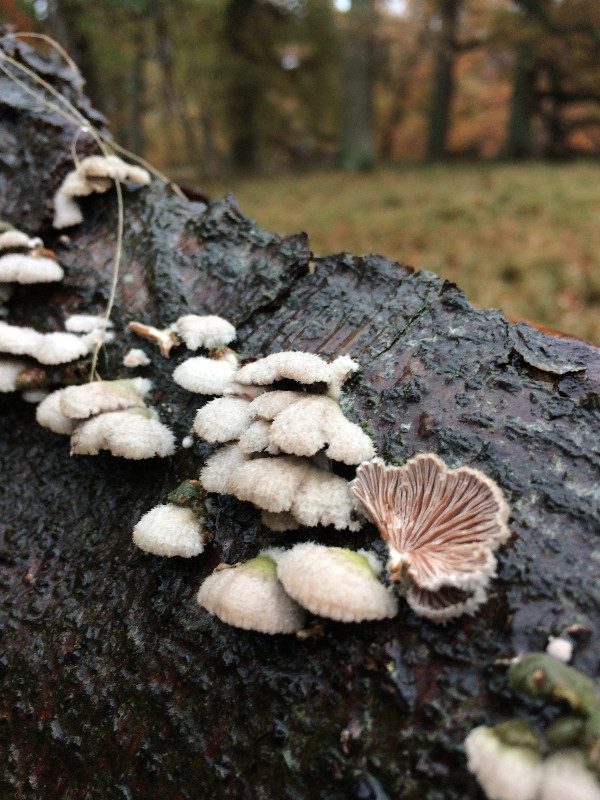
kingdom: Fungi
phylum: Basidiomycota
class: Agaricomycetes
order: Agaricales
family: Schizophyllaceae
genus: Schizophyllum
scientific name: Schizophyllum commune
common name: kløvblad
